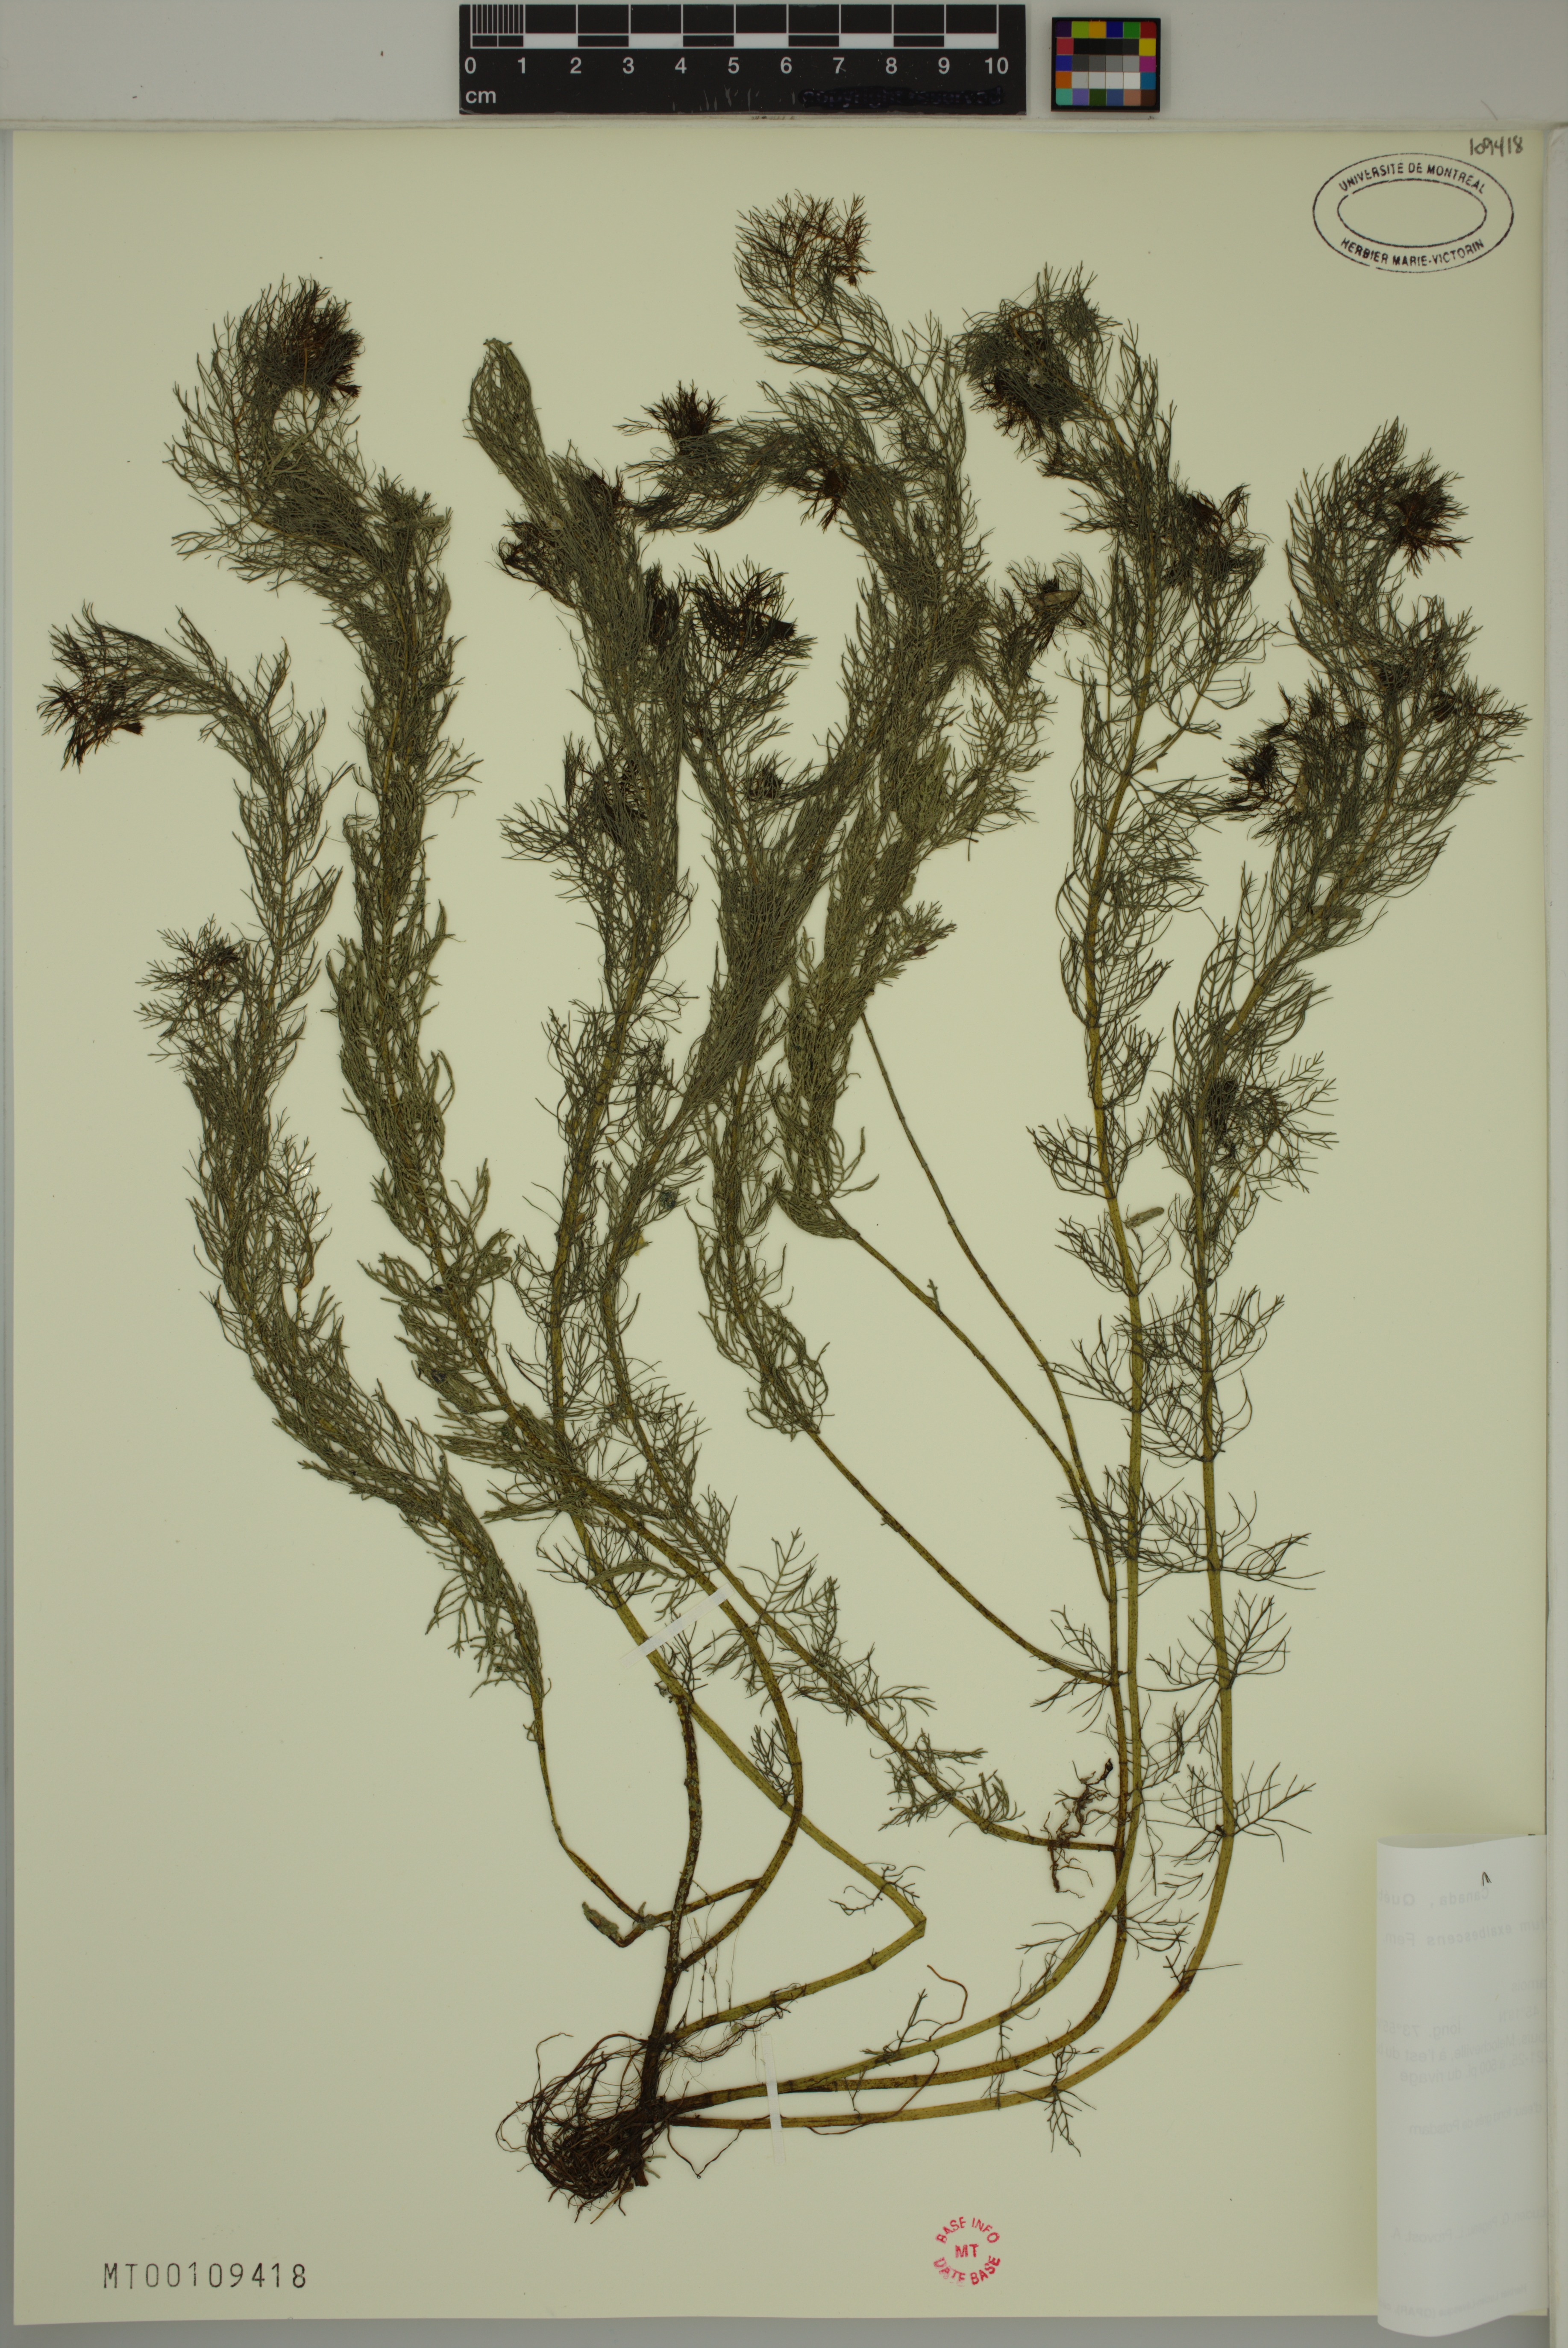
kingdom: Plantae
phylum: Tracheophyta
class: Magnoliopsida
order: Saxifragales
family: Haloragaceae
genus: Myriophyllum
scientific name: Myriophyllum sibiricum
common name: Siberian water-milfoil
